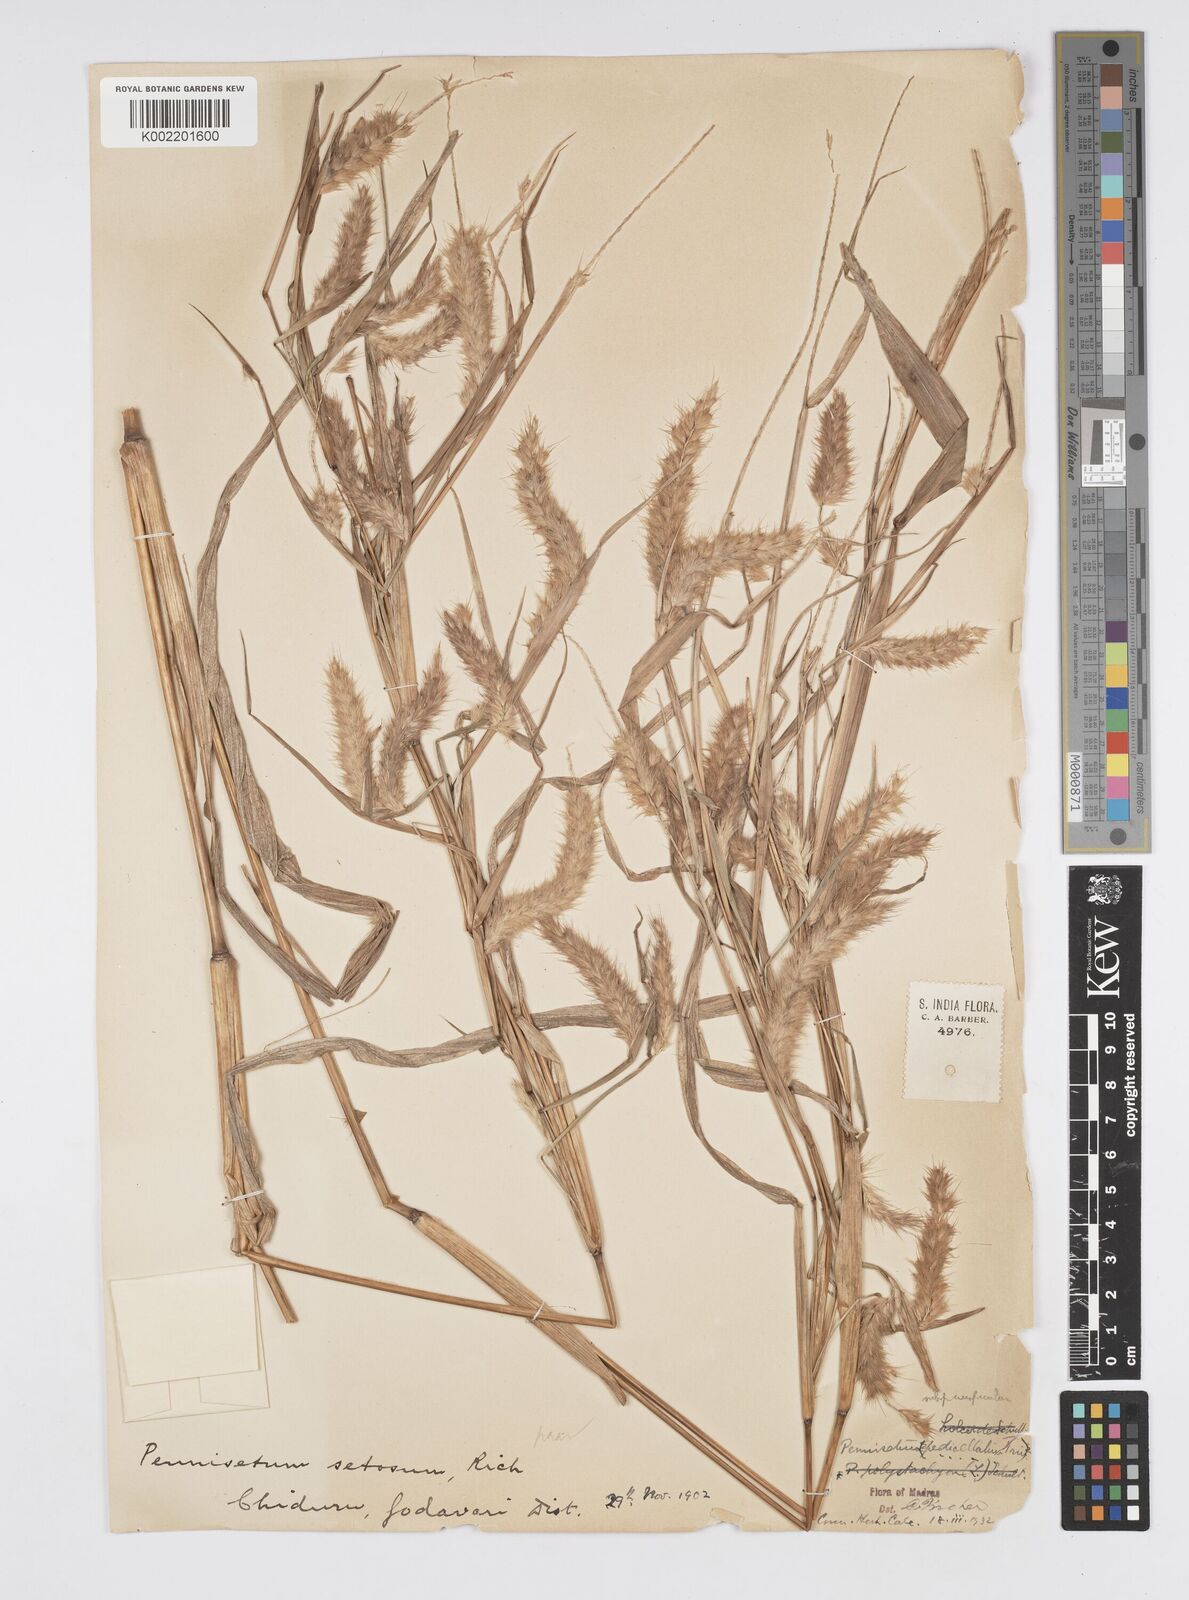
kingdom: Plantae
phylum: Tracheophyta
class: Liliopsida
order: Poales
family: Poaceae
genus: Cenchrus
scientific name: Cenchrus pedicellatus
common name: Hairy fountain grass
